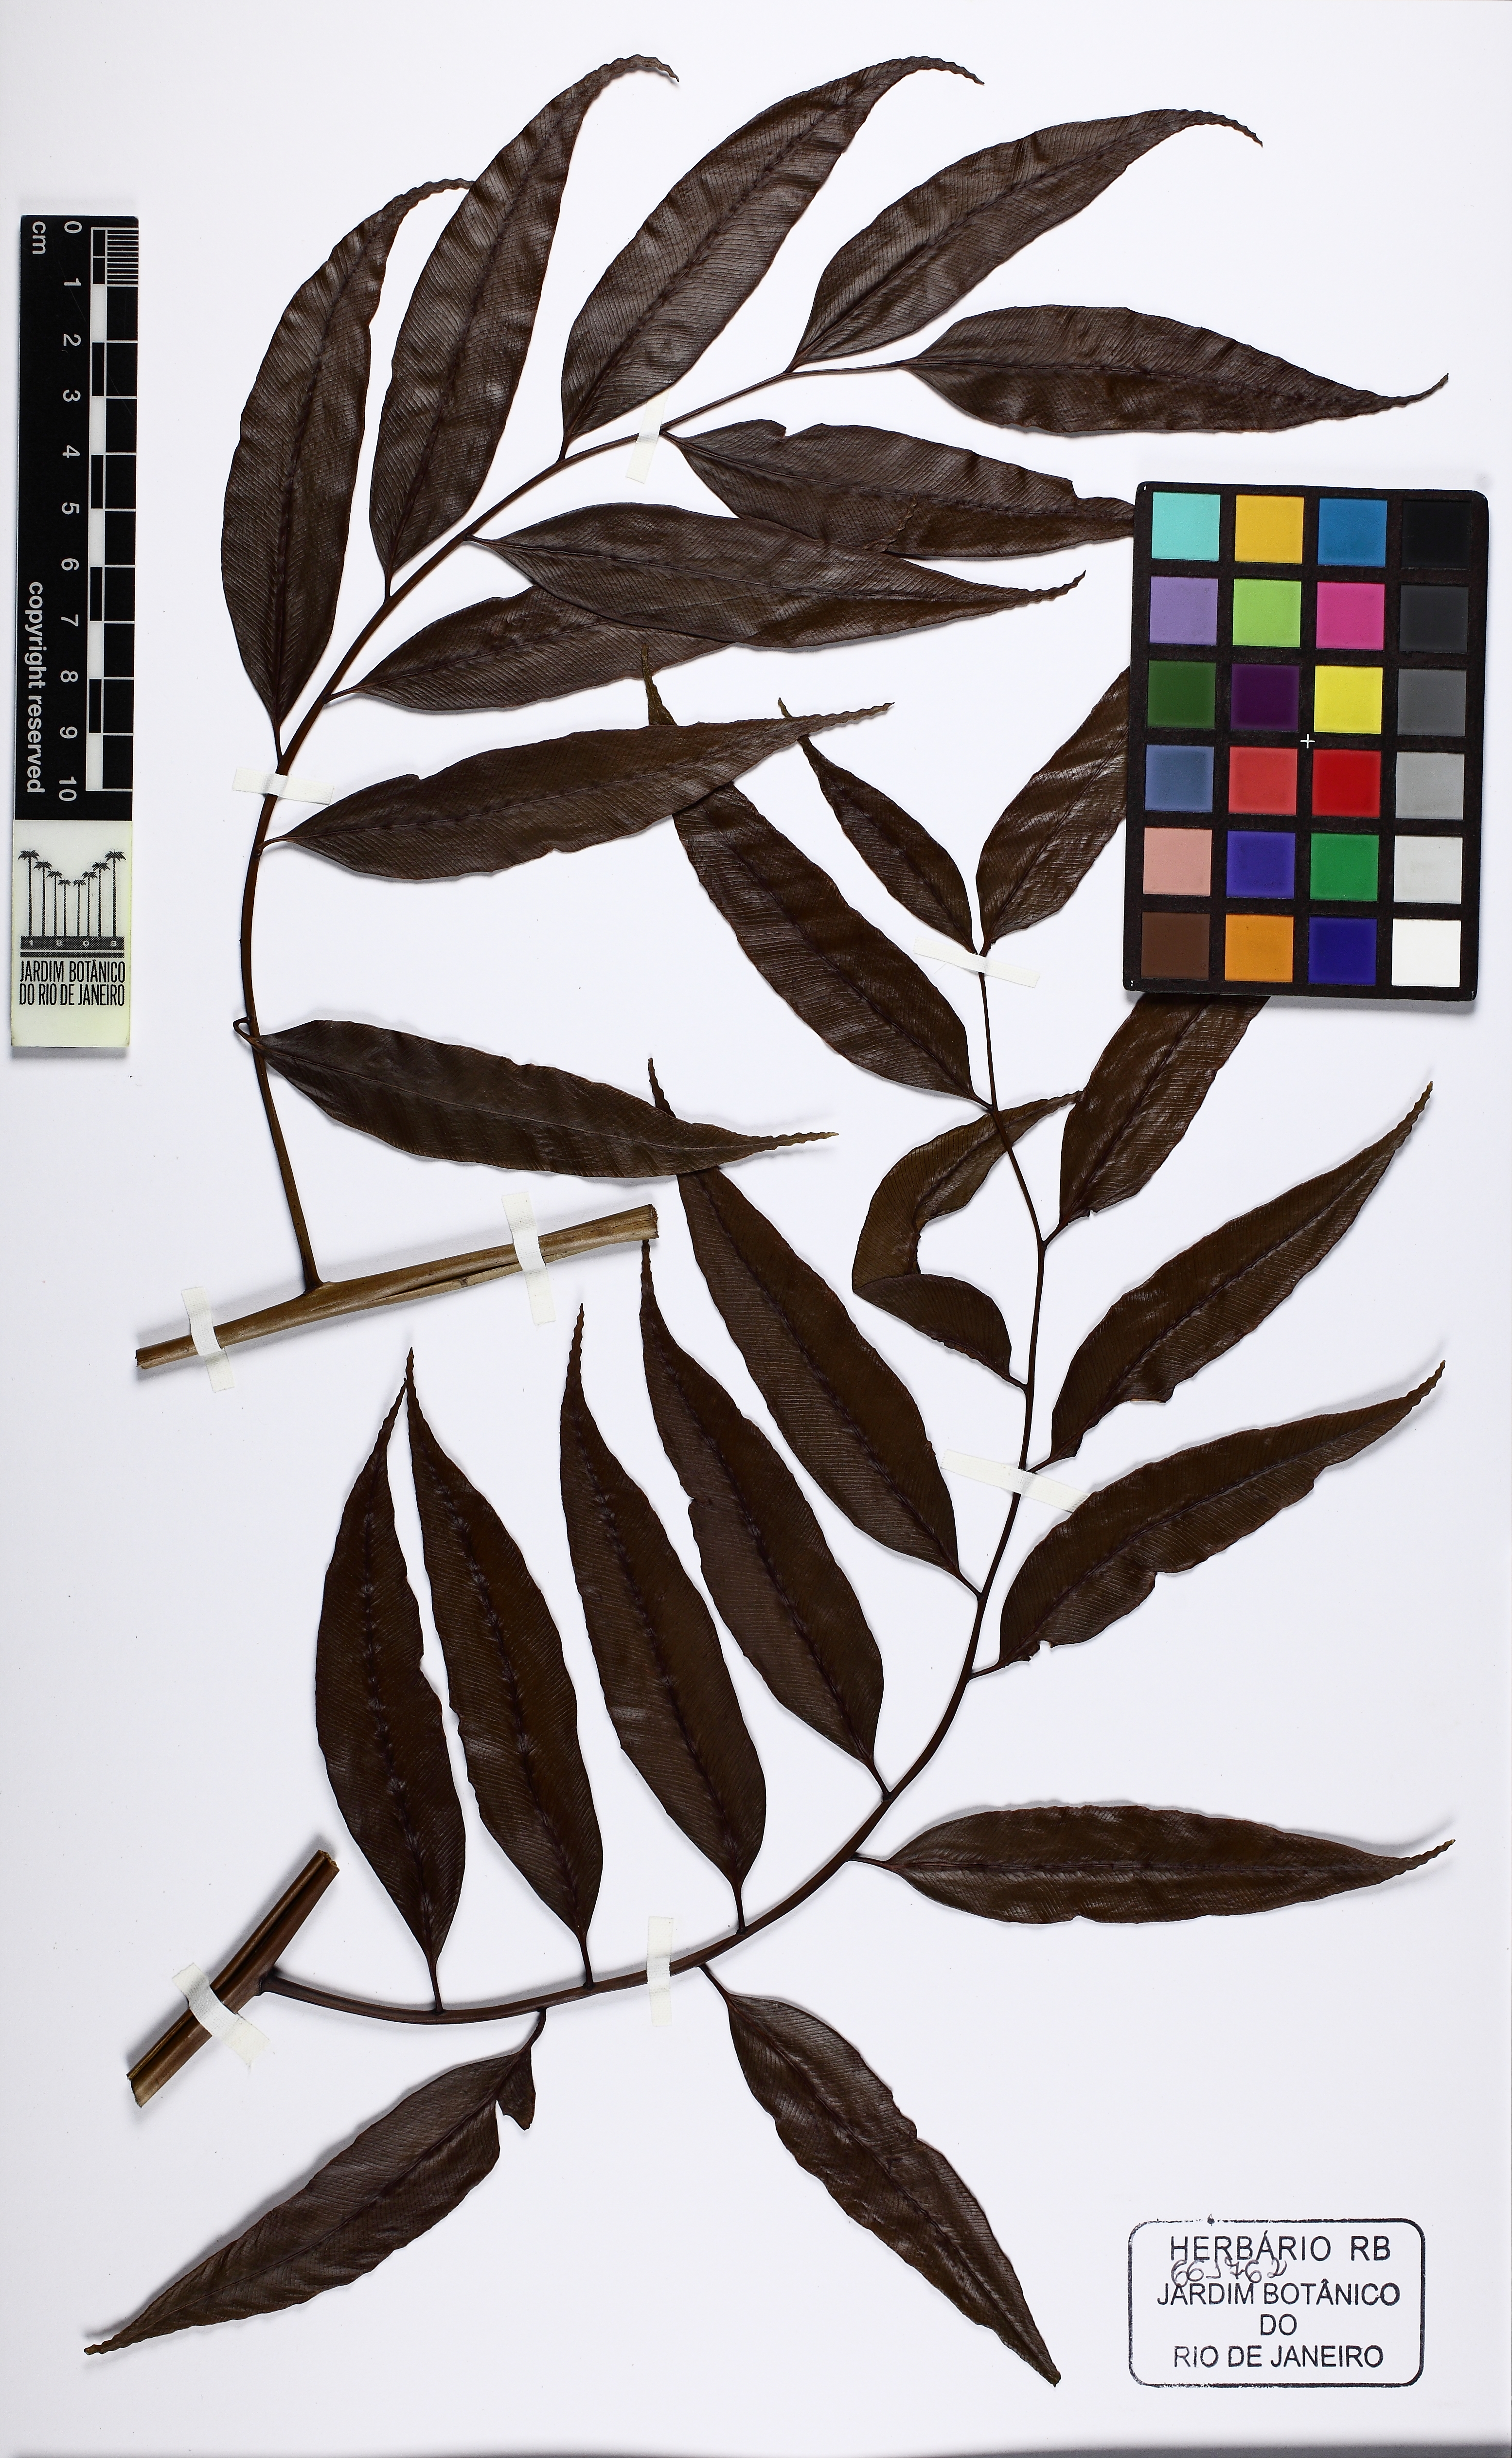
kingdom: Plantae
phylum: Tracheophyta
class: Polypodiopsida
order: Cyatheales
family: Cyatheaceae
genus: Cyathea
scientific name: Cyathea corcovadensis
